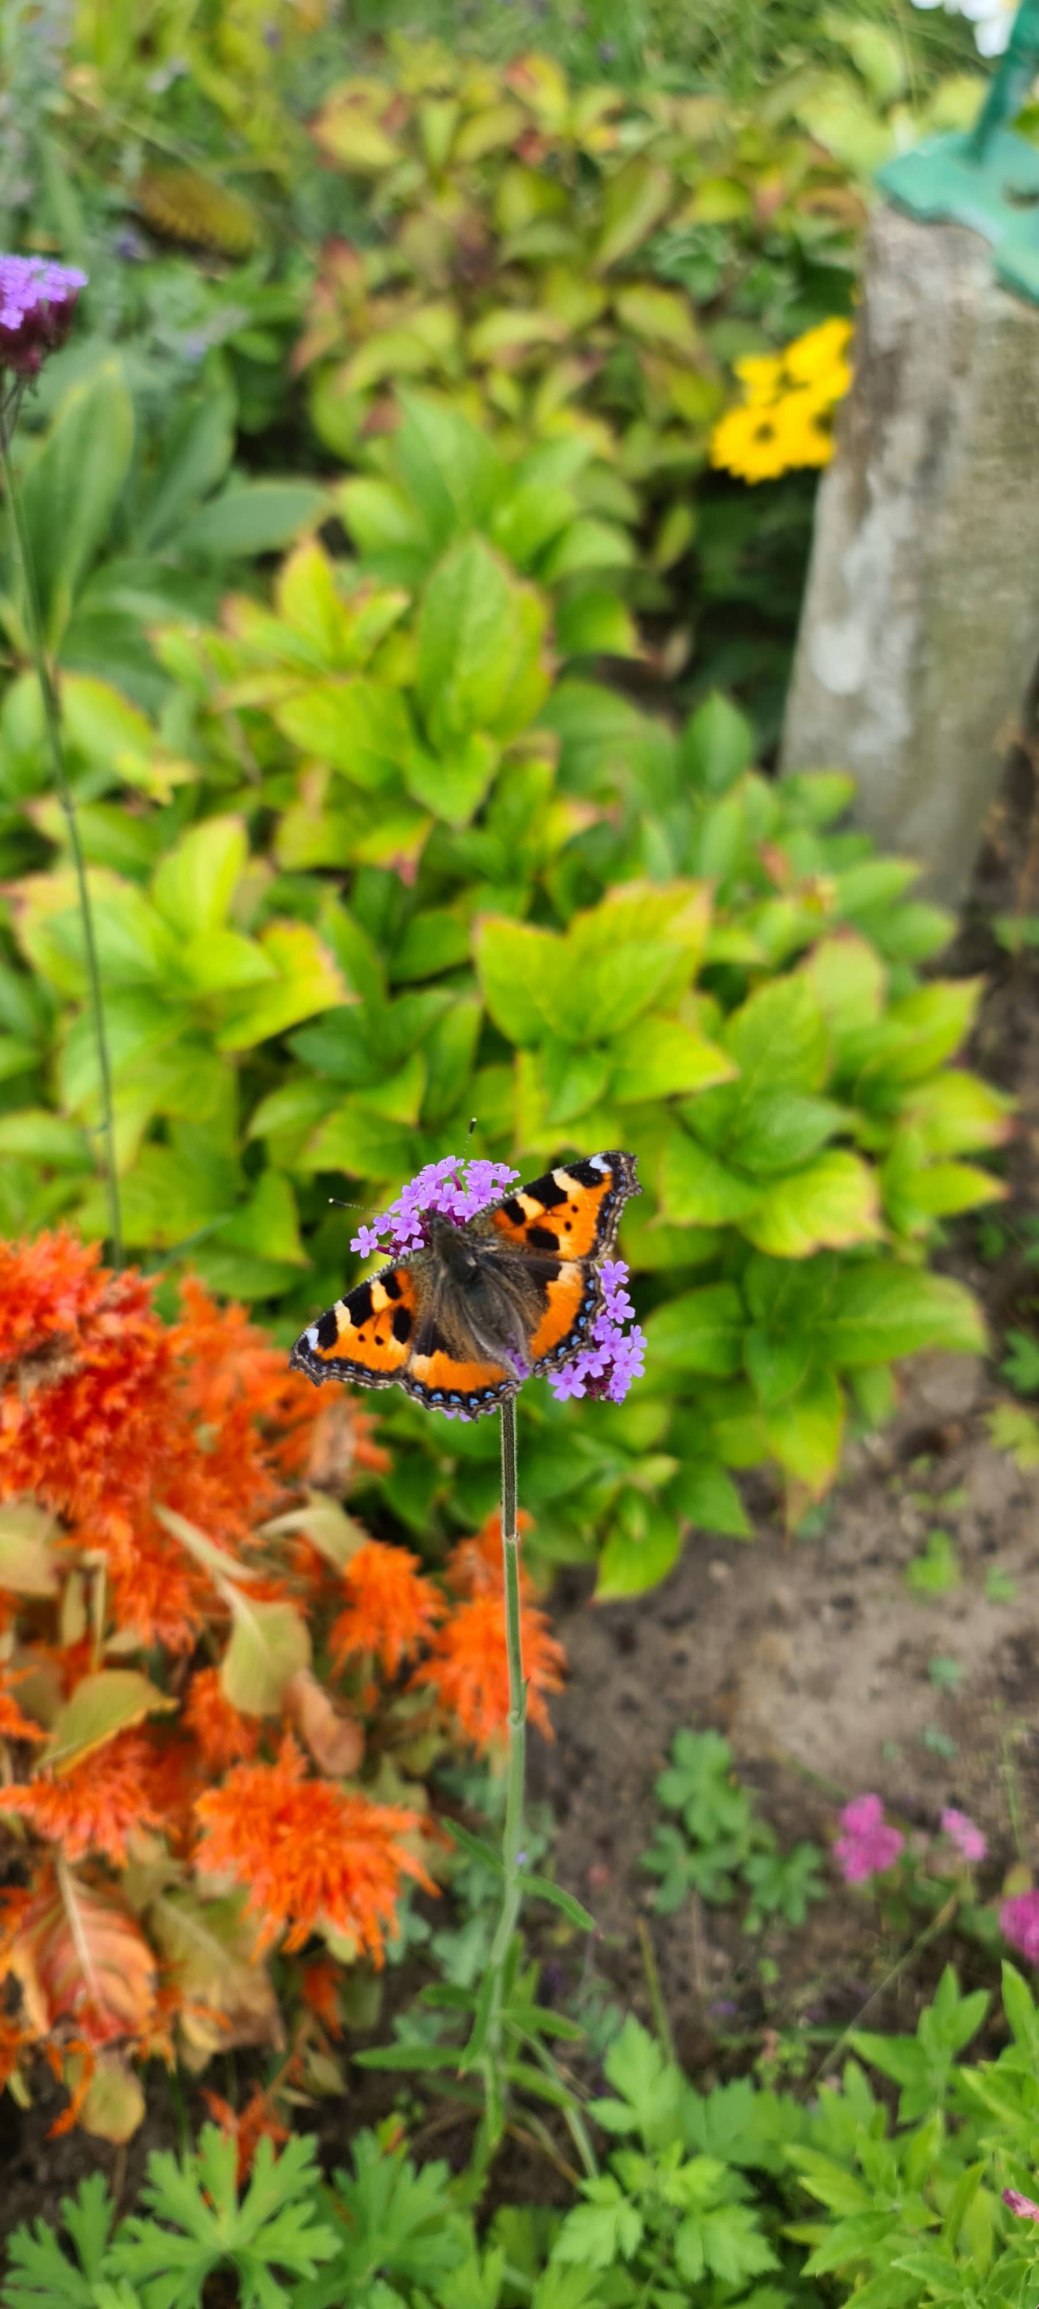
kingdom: Animalia
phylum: Arthropoda
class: Insecta
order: Lepidoptera
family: Nymphalidae
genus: Aglais
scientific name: Aglais urticae
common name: Nældens takvinge
